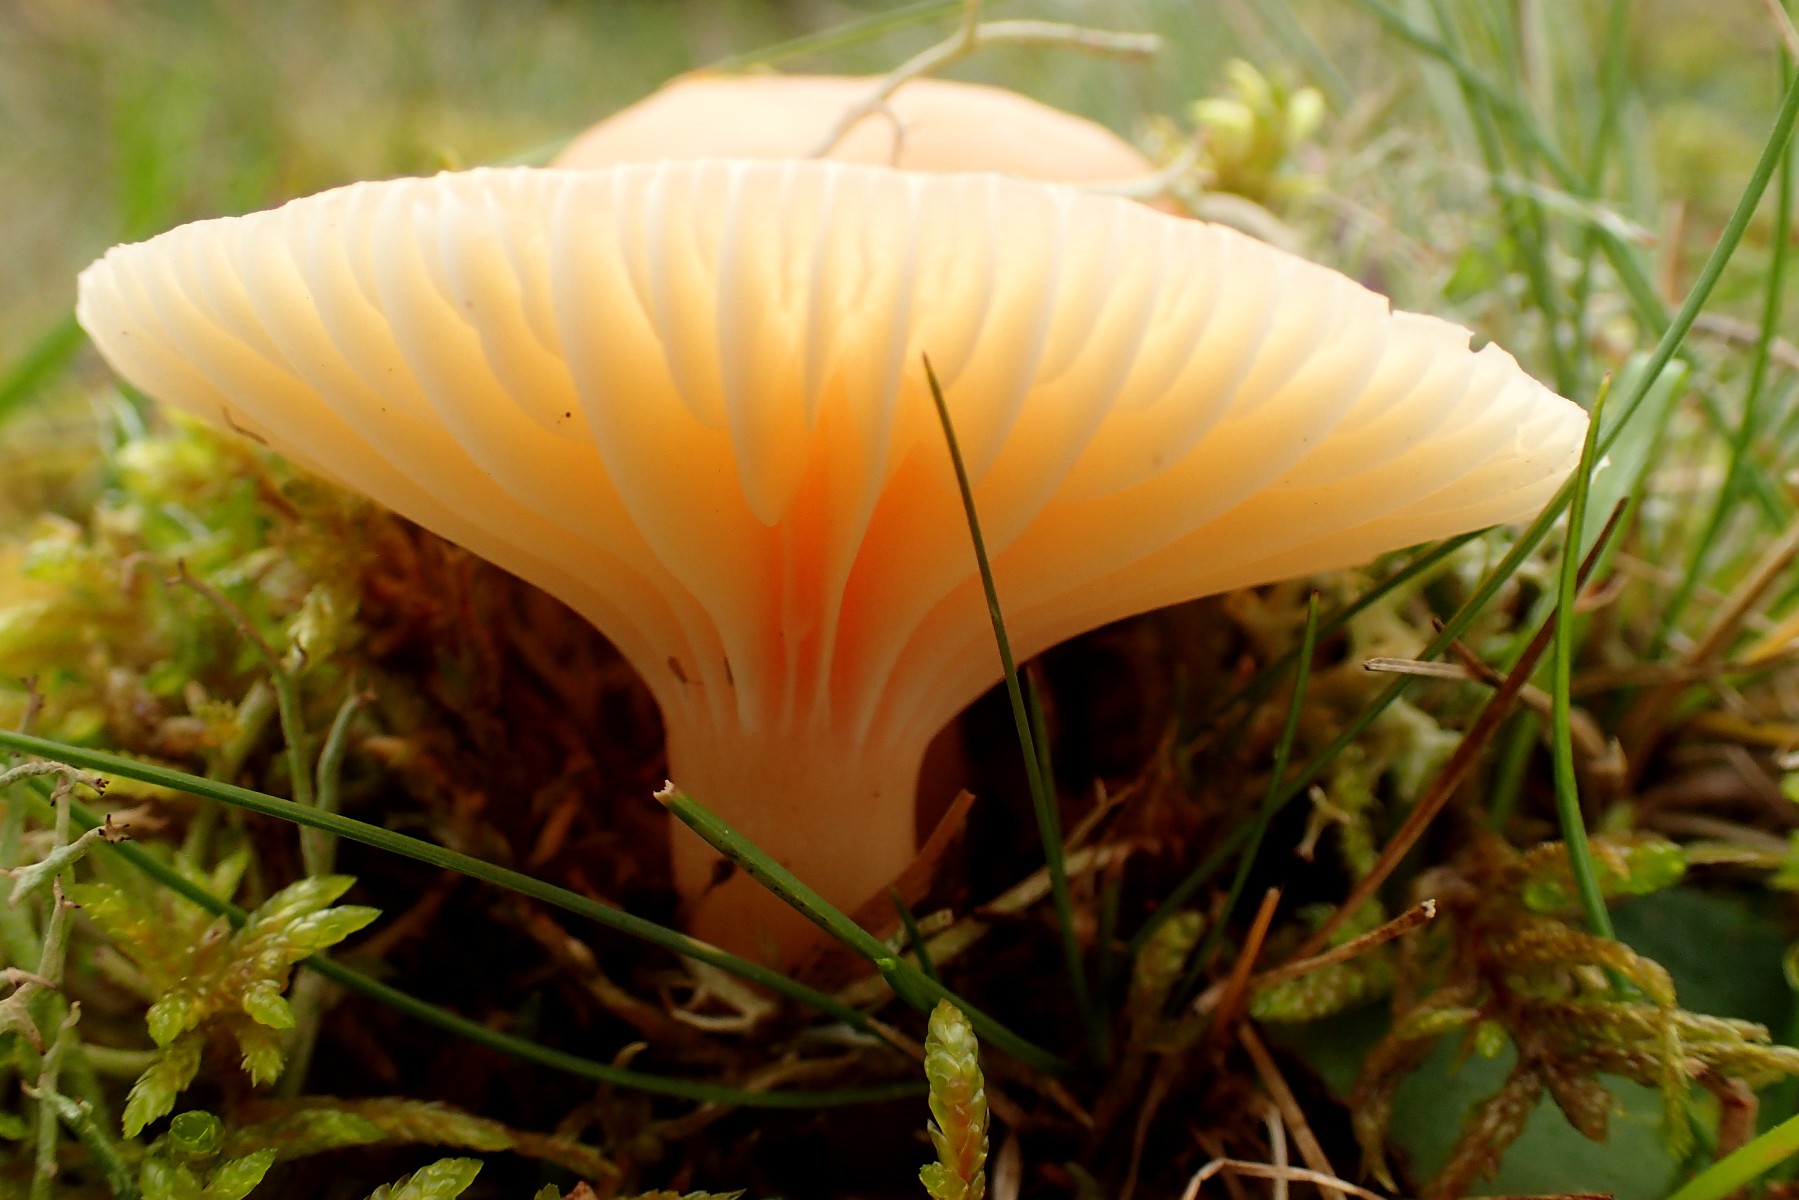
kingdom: Fungi
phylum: Basidiomycota
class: Agaricomycetes
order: Agaricales
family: Hygrophoraceae
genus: Cuphophyllus
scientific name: Cuphophyllus pratensis
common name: eng-vokshat
